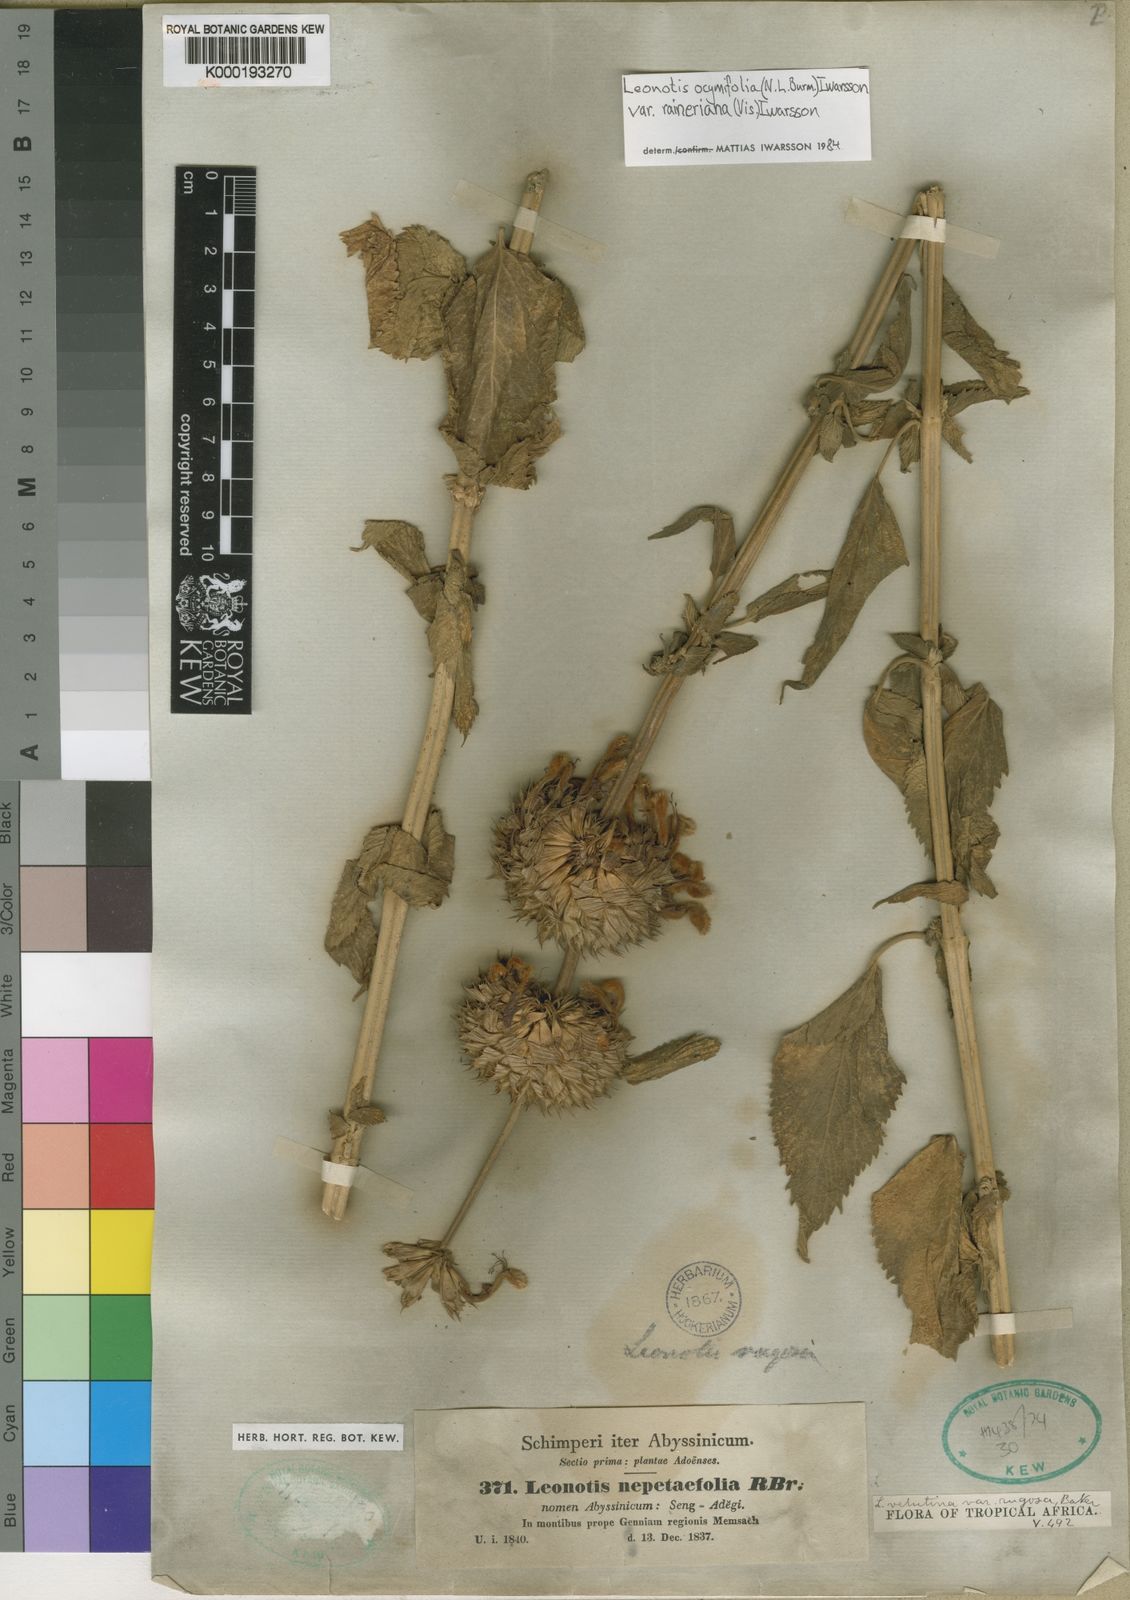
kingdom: Plantae
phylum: Tracheophyta
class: Magnoliopsida
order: Lamiales
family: Lamiaceae
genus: Leonotis
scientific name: Leonotis
